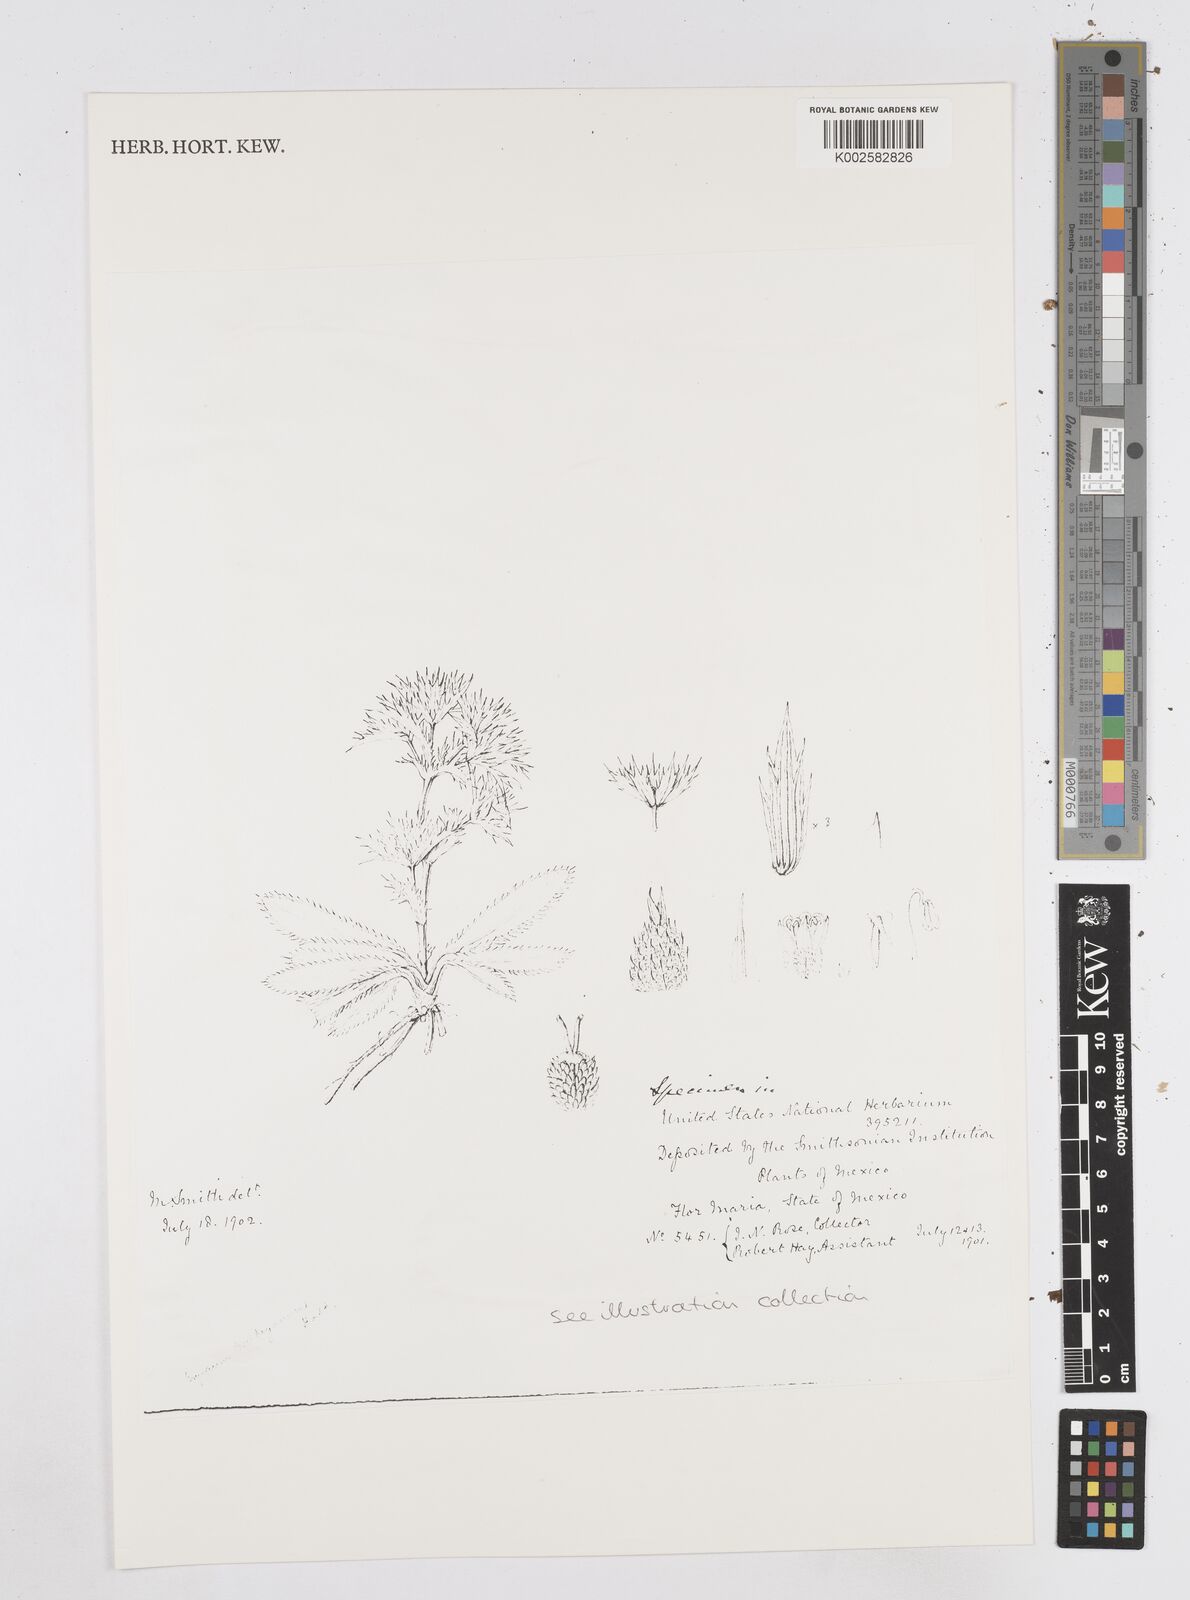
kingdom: Plantae
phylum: Tracheophyta
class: Magnoliopsida
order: Apiales
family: Apiaceae
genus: Eryngium
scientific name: Eryngium beecheyanum
